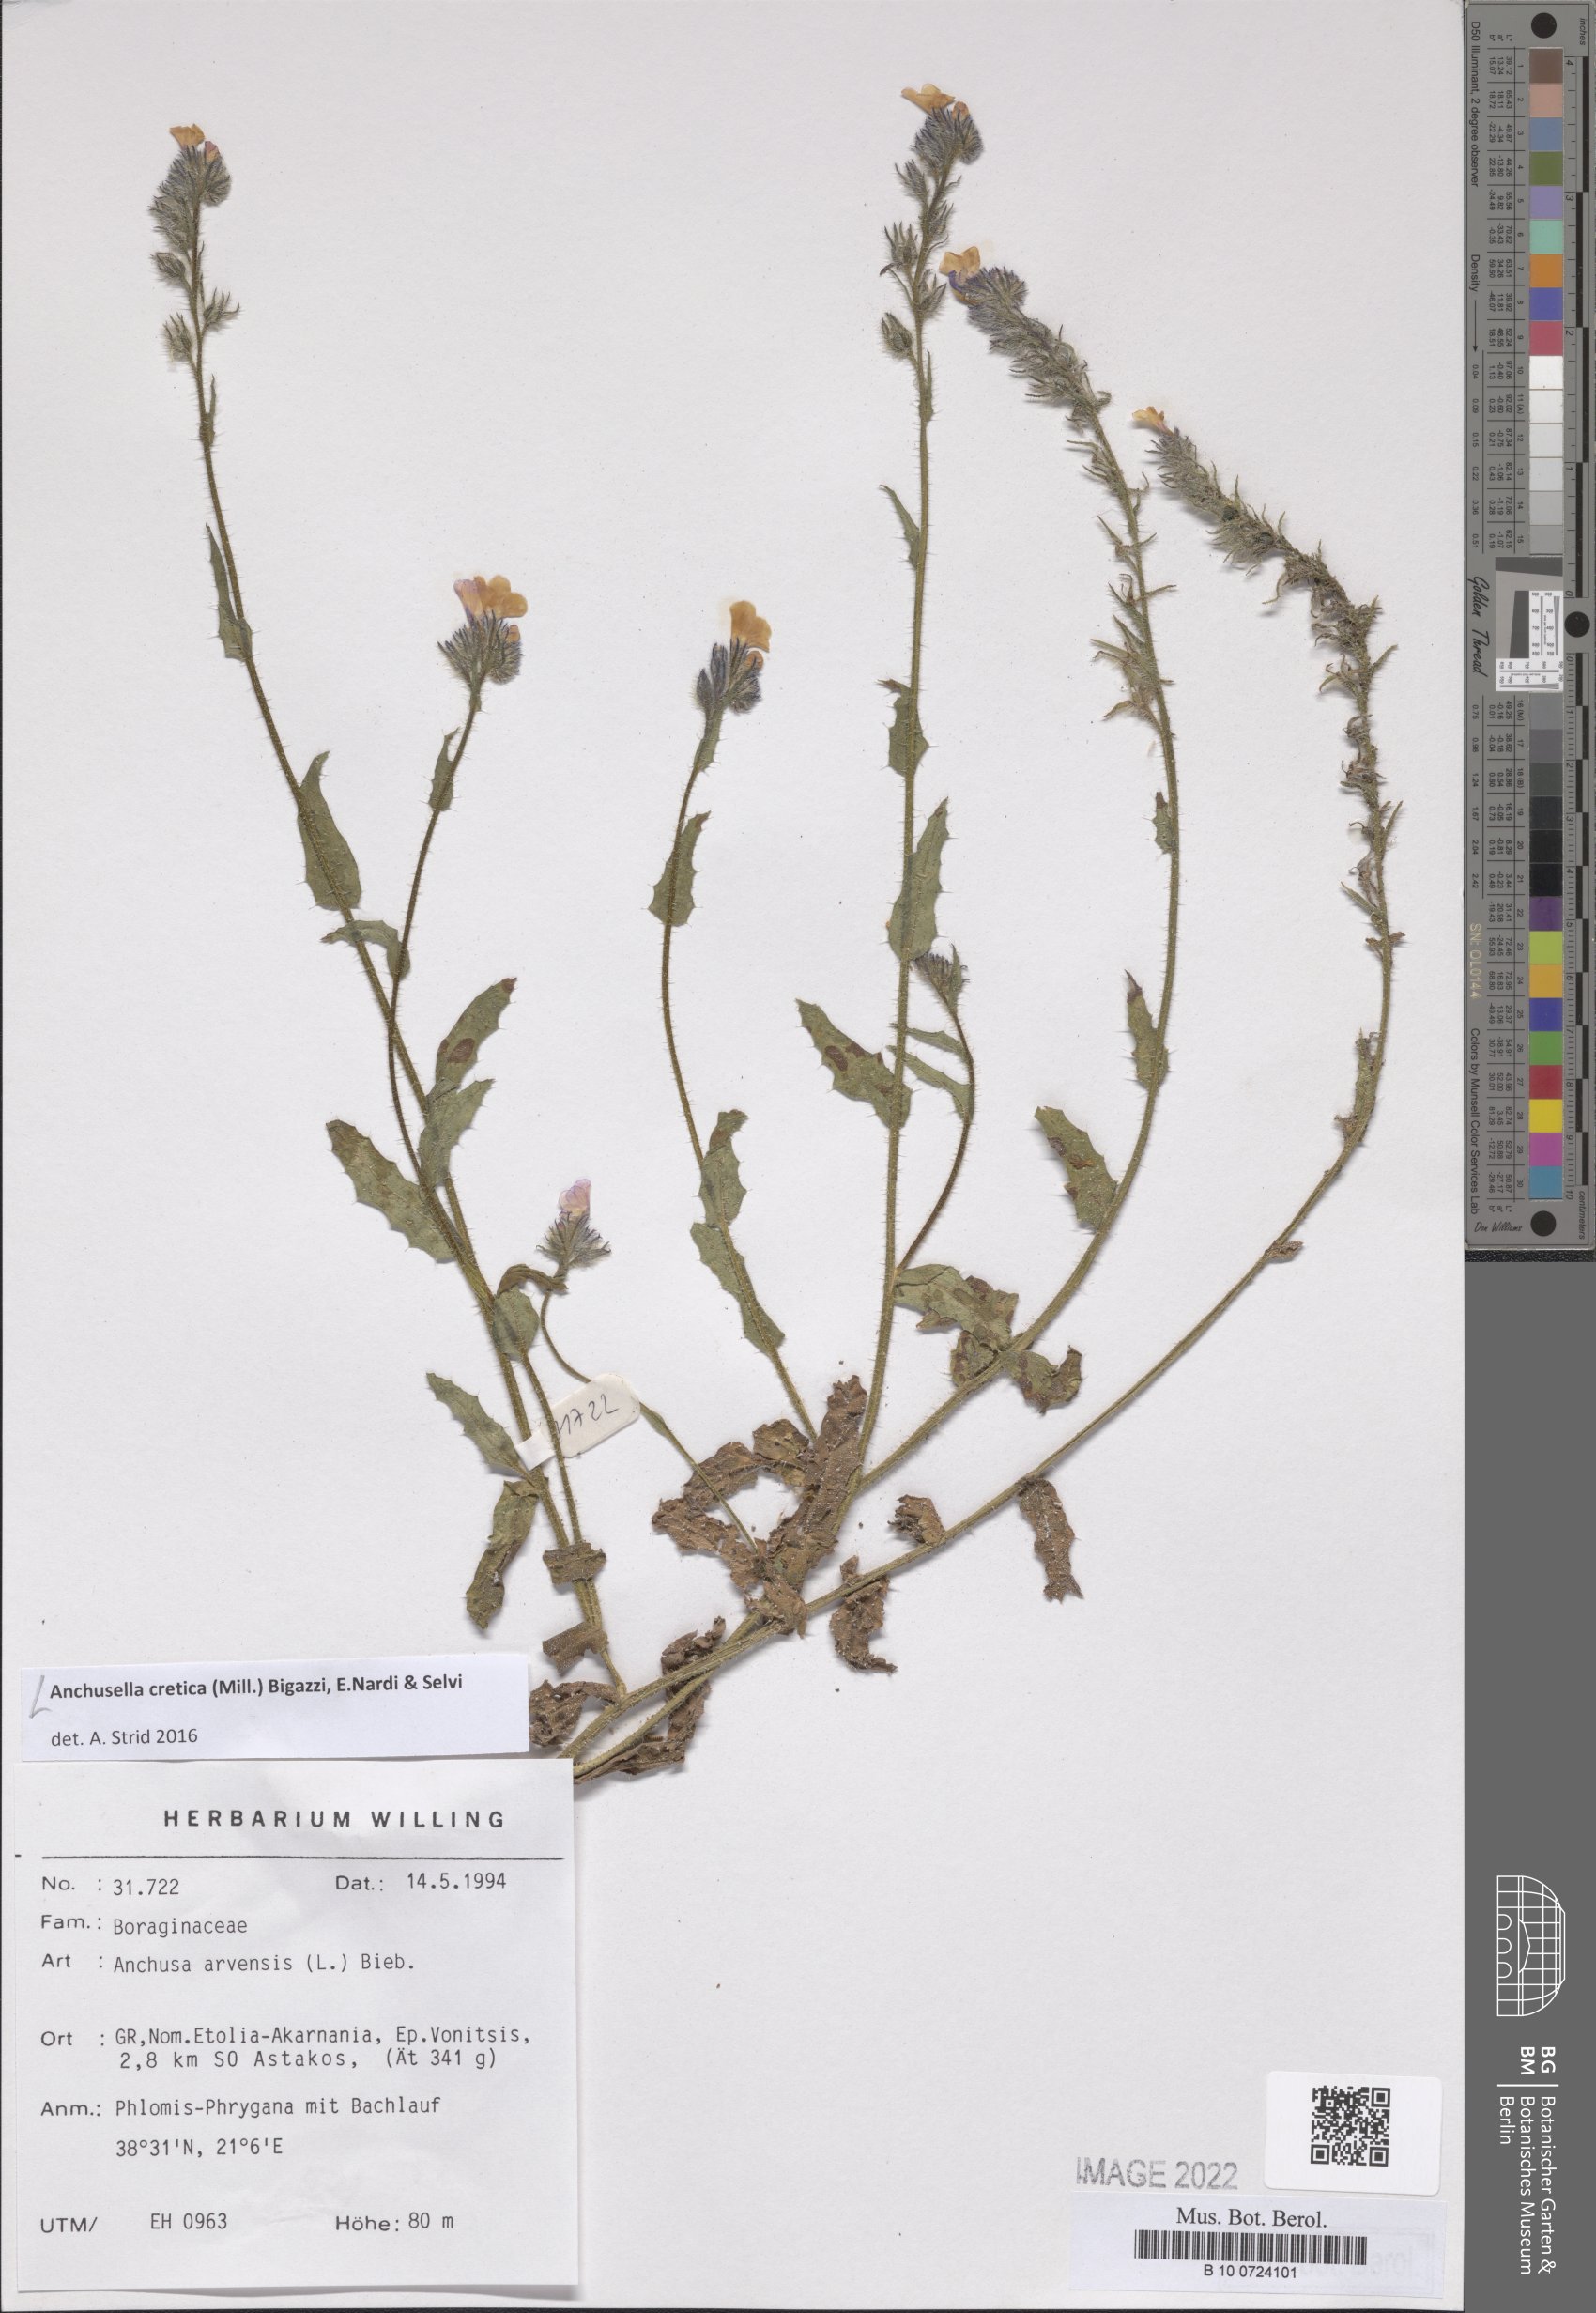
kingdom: Plantae
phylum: Tracheophyta
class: Magnoliopsida
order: Boraginales
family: Boraginaceae
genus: Anchusella
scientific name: Anchusella cretica
